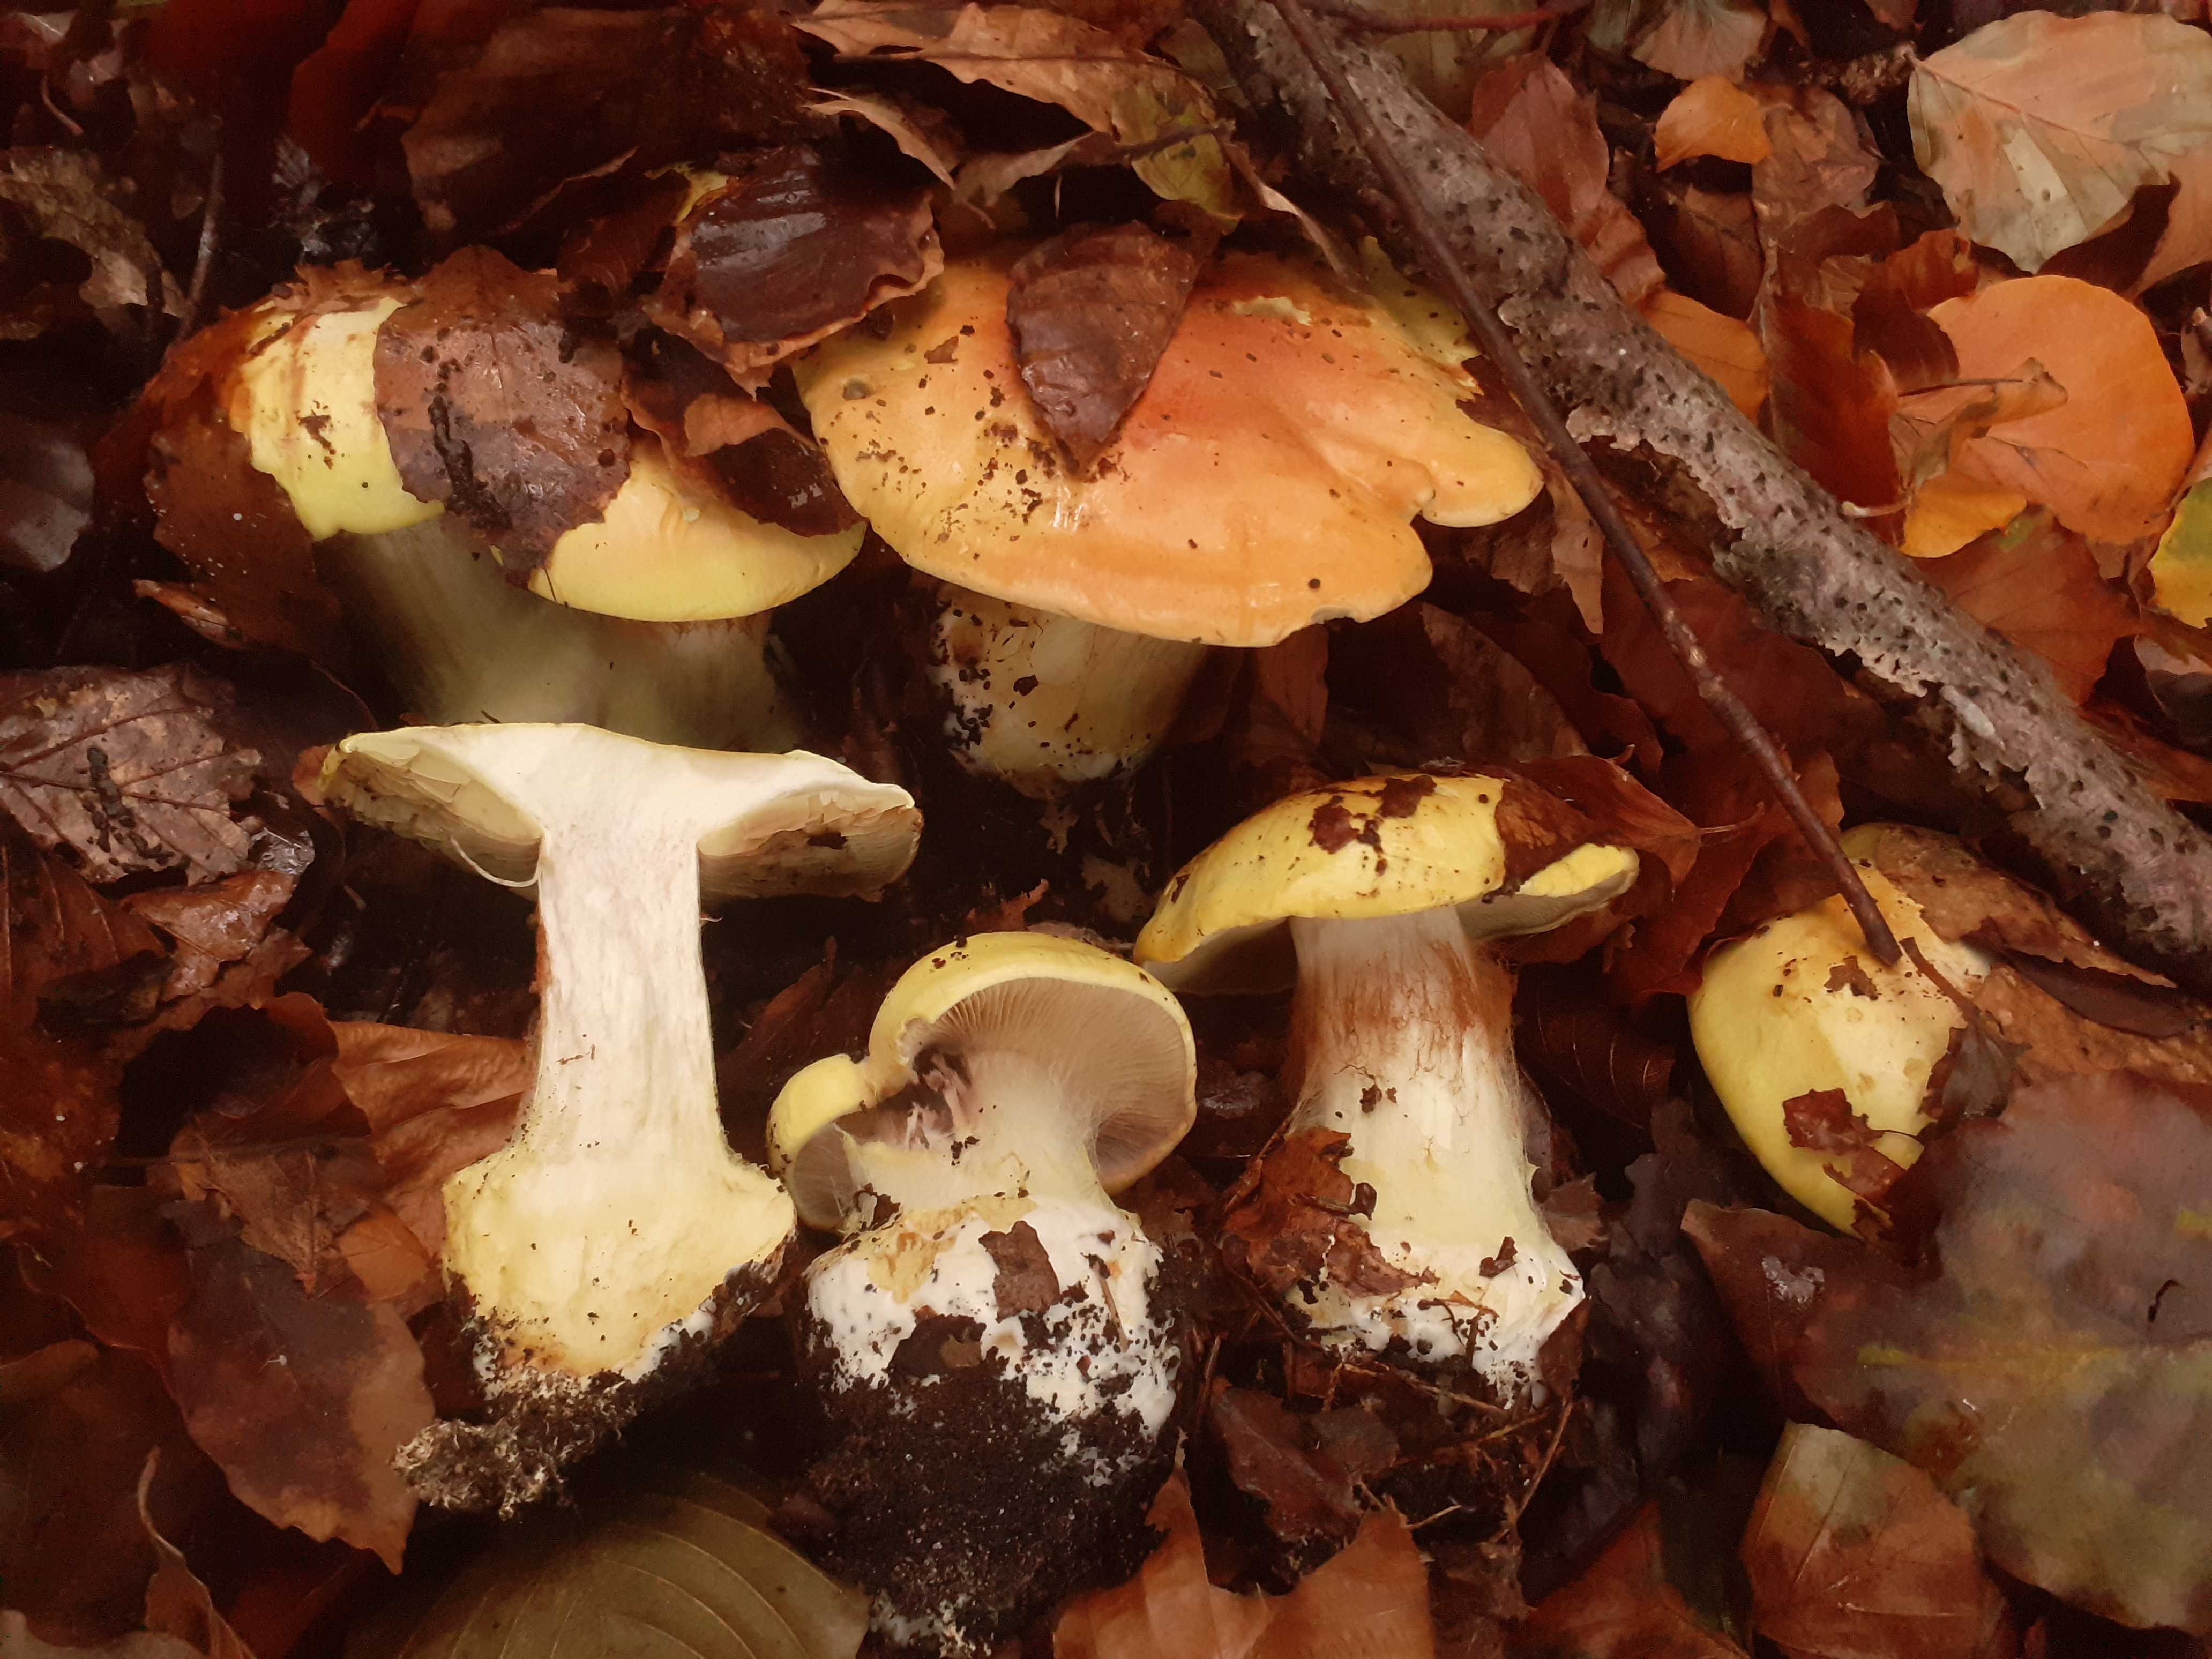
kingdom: Fungi
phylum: Basidiomycota
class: Agaricomycetes
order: Agaricales
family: Cortinariaceae
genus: Cortinarius
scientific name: Cortinarius bergeronii
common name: prægtig slørhat
